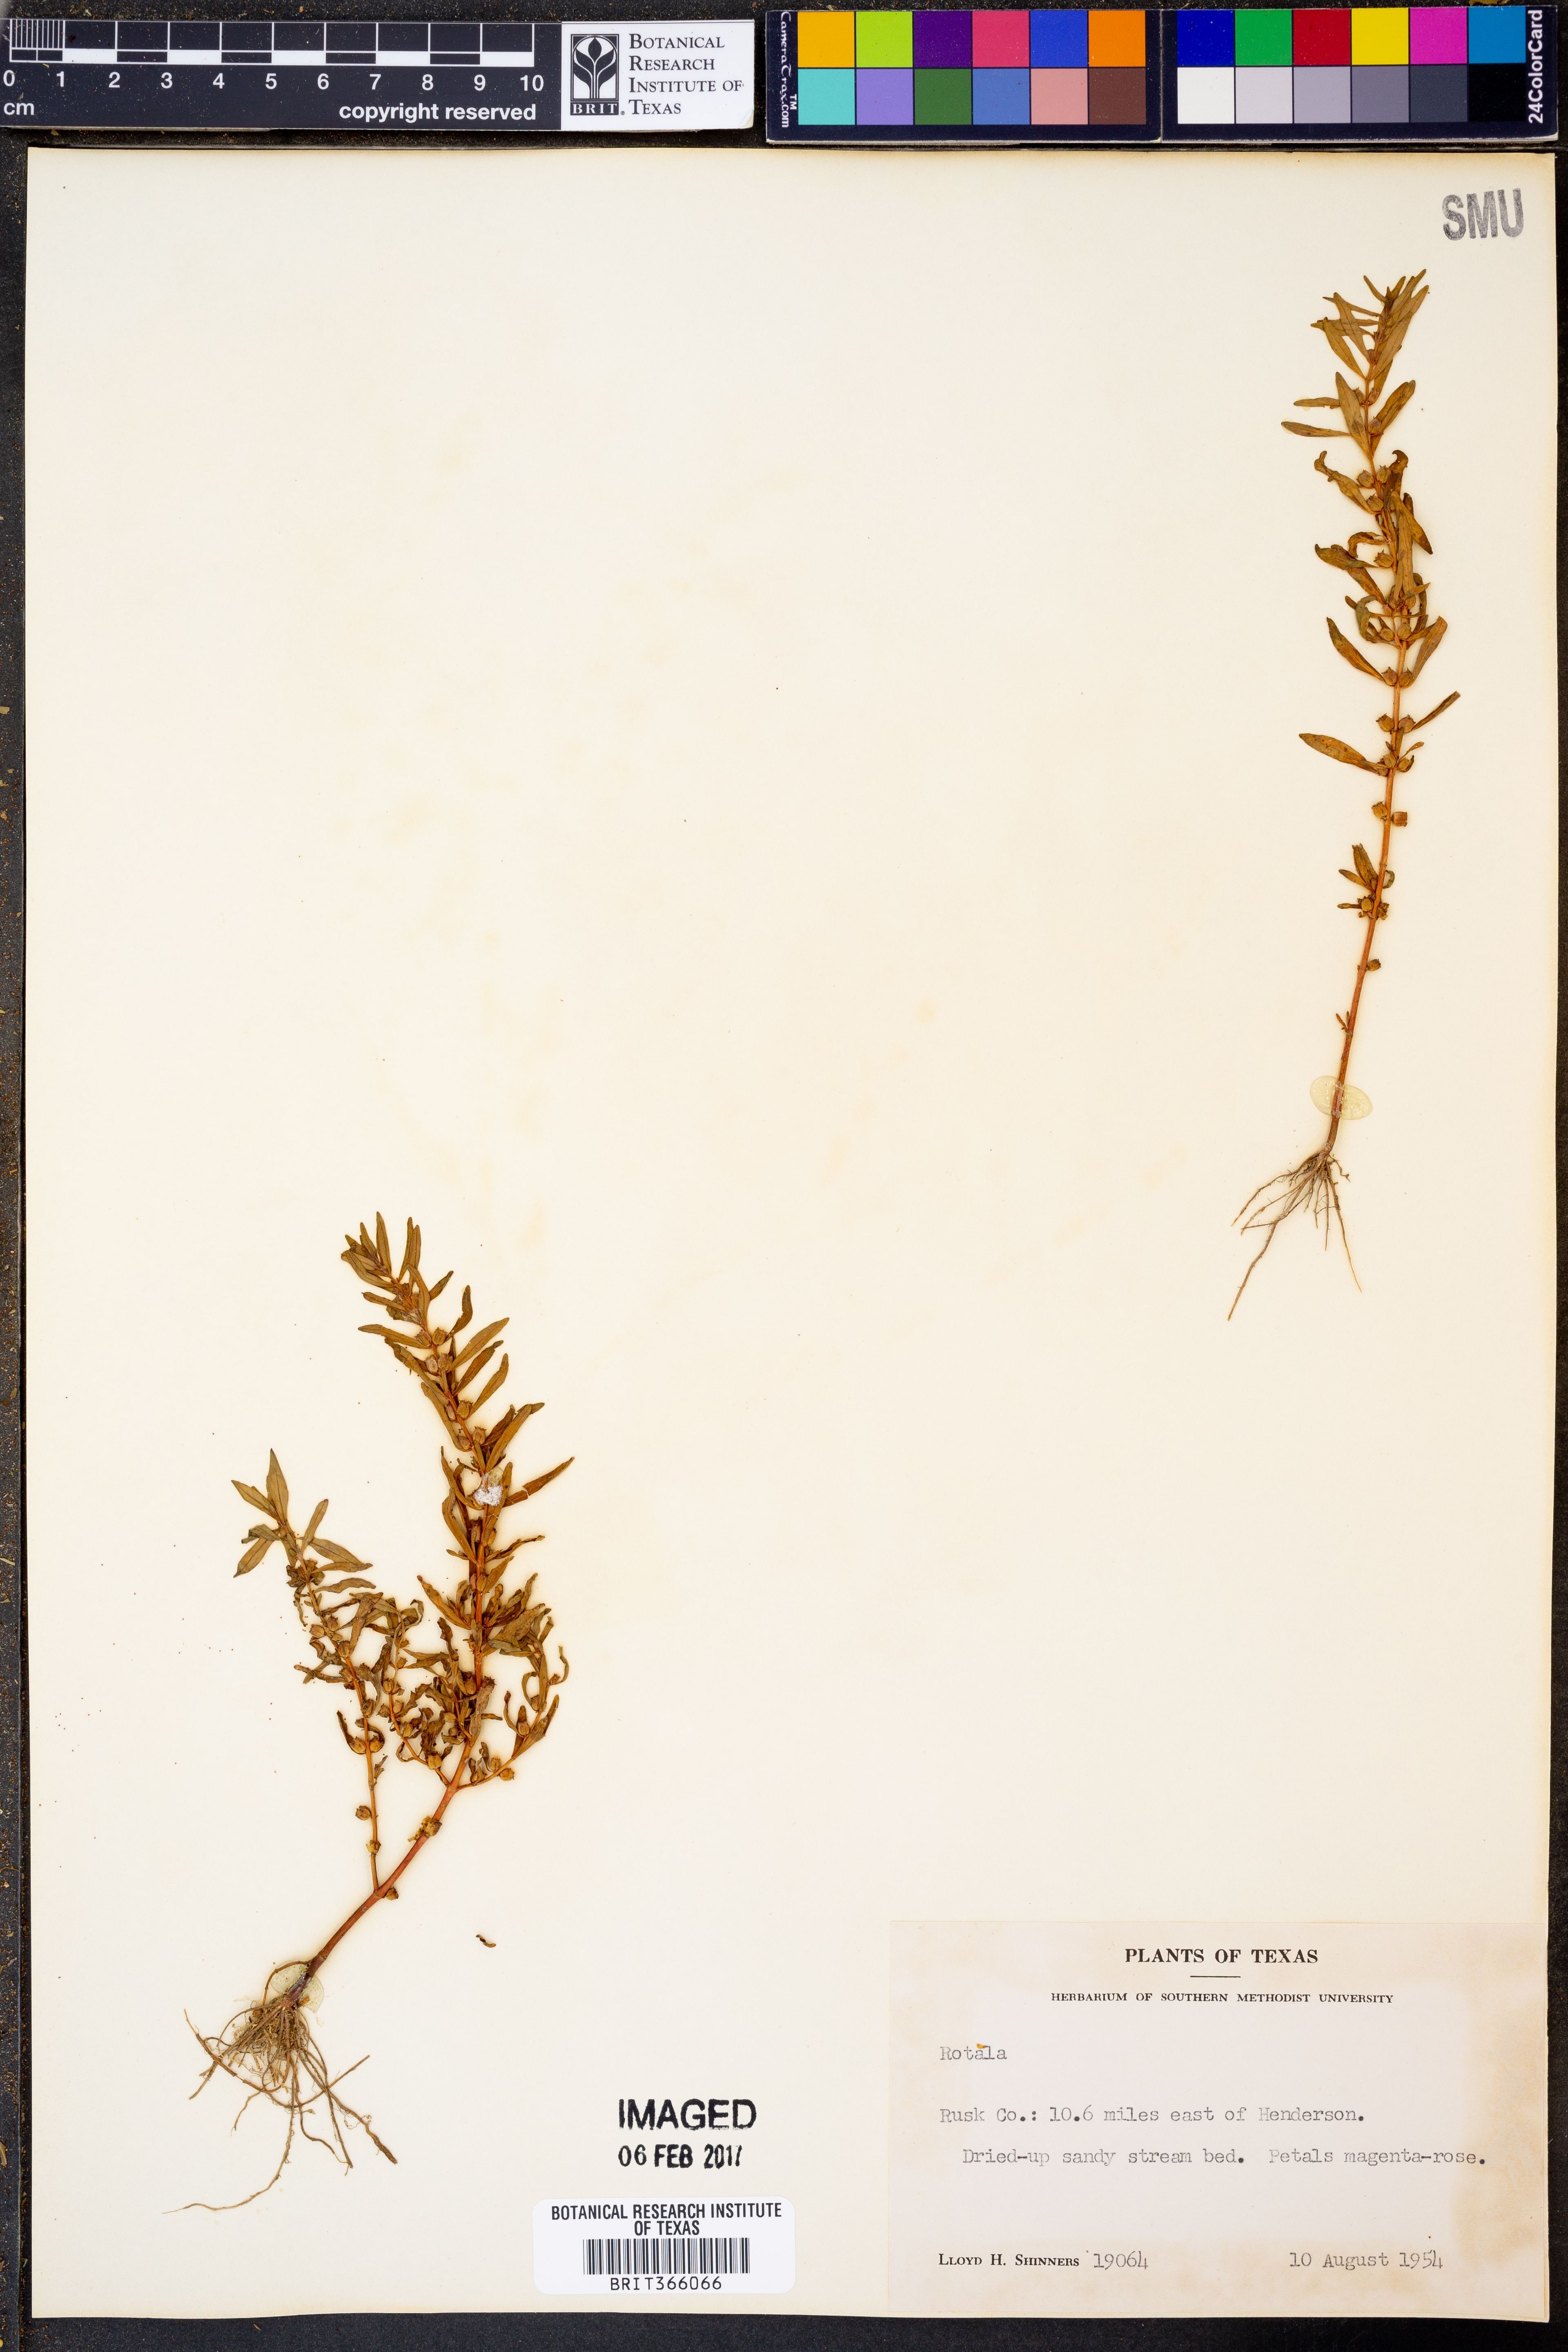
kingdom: Plantae
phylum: Tracheophyta
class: Magnoliopsida
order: Myrtales
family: Lythraceae
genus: Rotala
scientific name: Rotala
